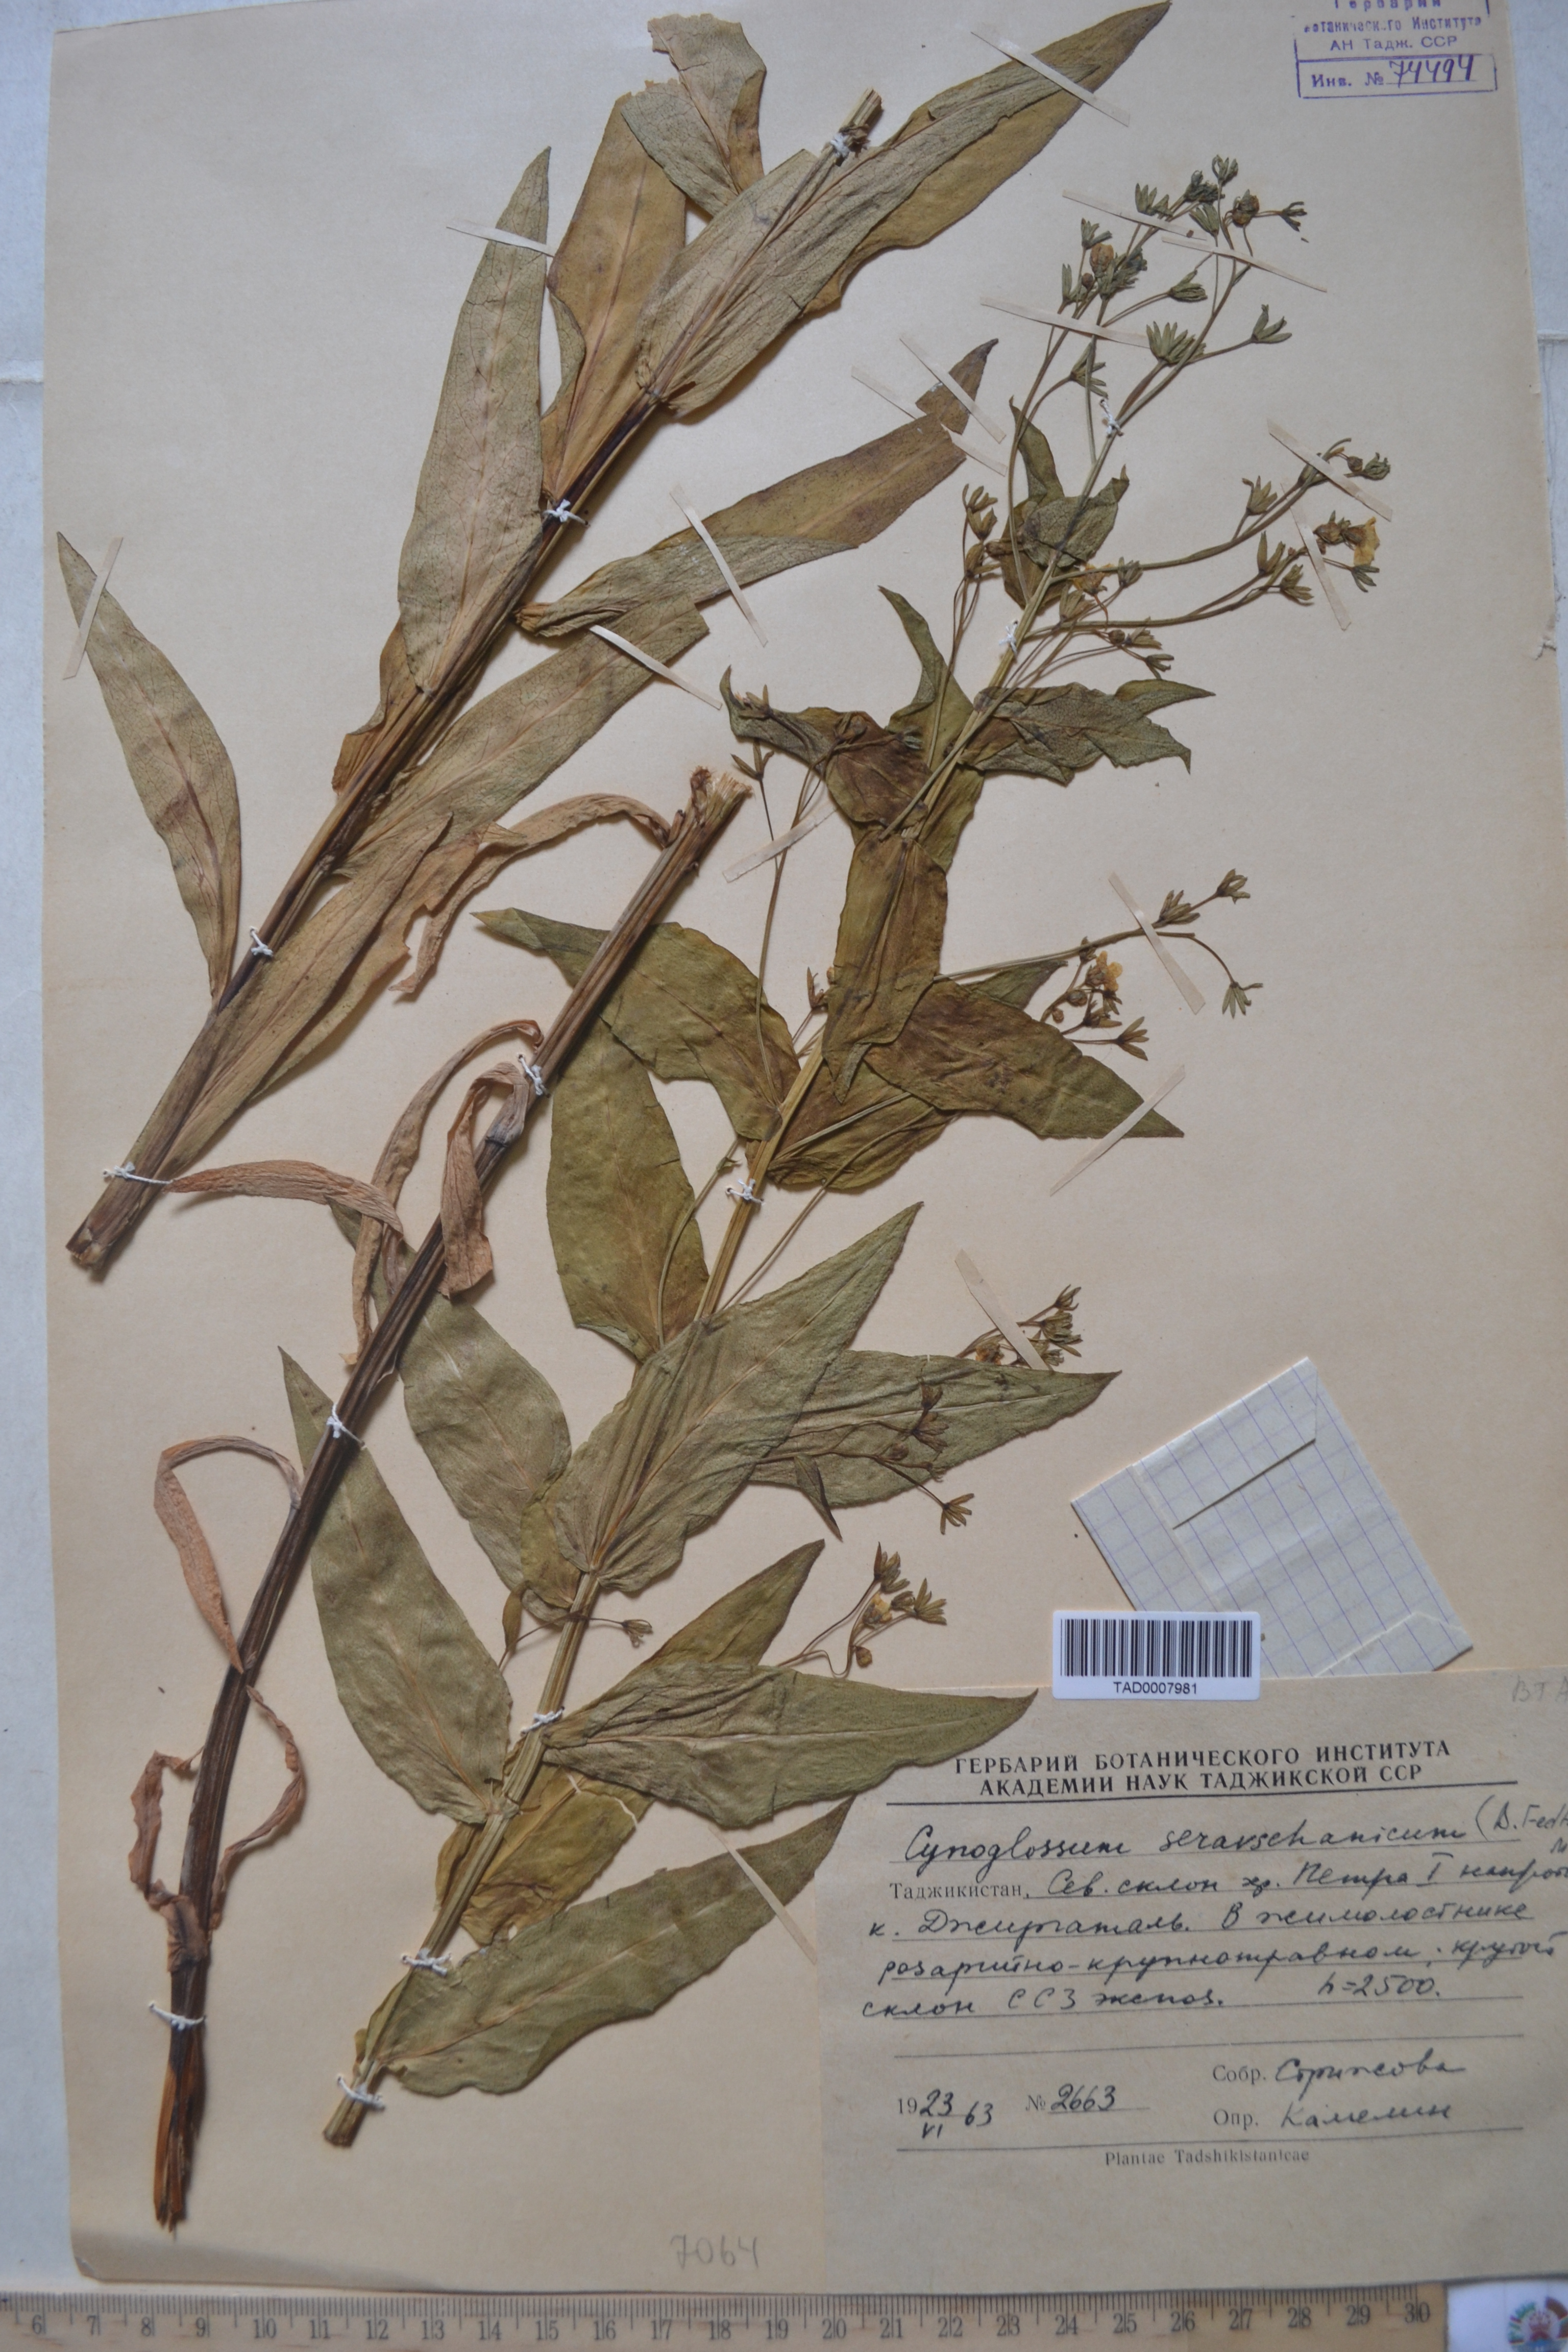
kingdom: Plantae
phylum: Tracheophyta
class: Magnoliopsida
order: Boraginales
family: Boraginaceae
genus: Cynoglossum
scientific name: Cynoglossum seravschanicum
